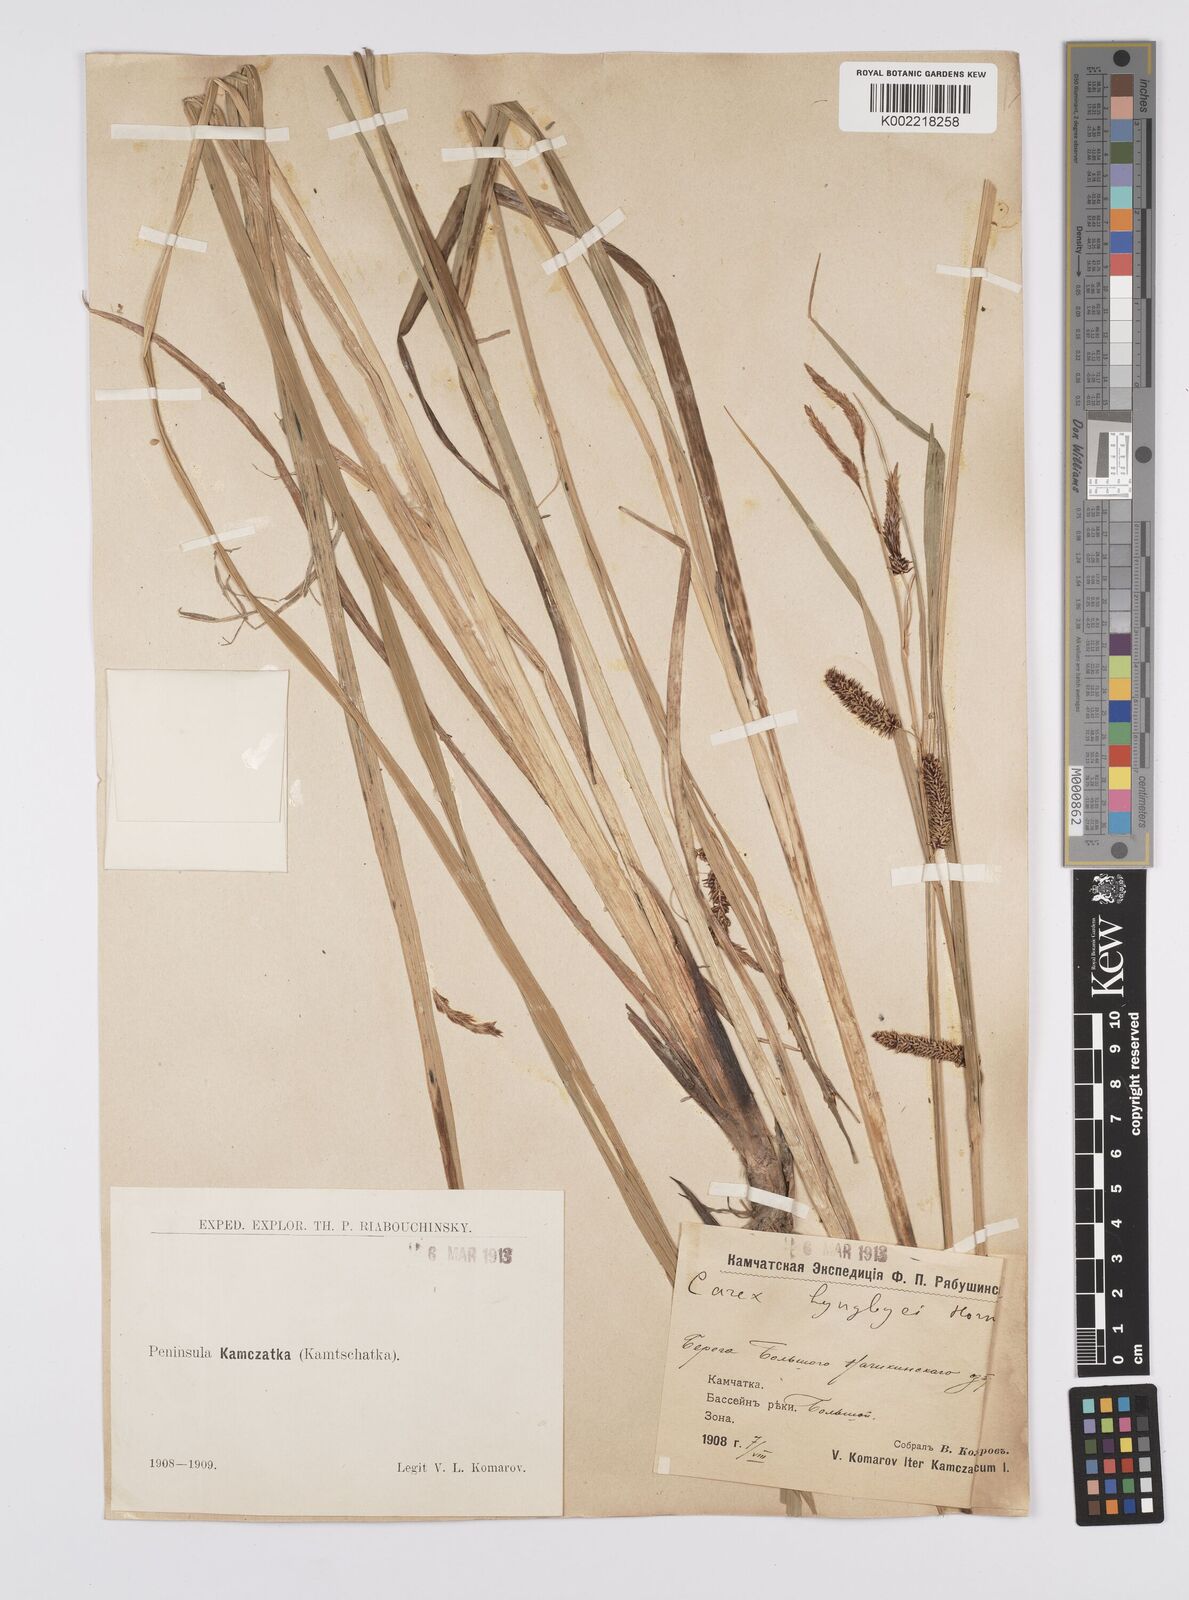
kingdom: Plantae
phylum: Tracheophyta
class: Liliopsida
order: Poales
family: Cyperaceae
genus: Carex
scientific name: Carex lyngbyei
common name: Lyngbye's sedge
